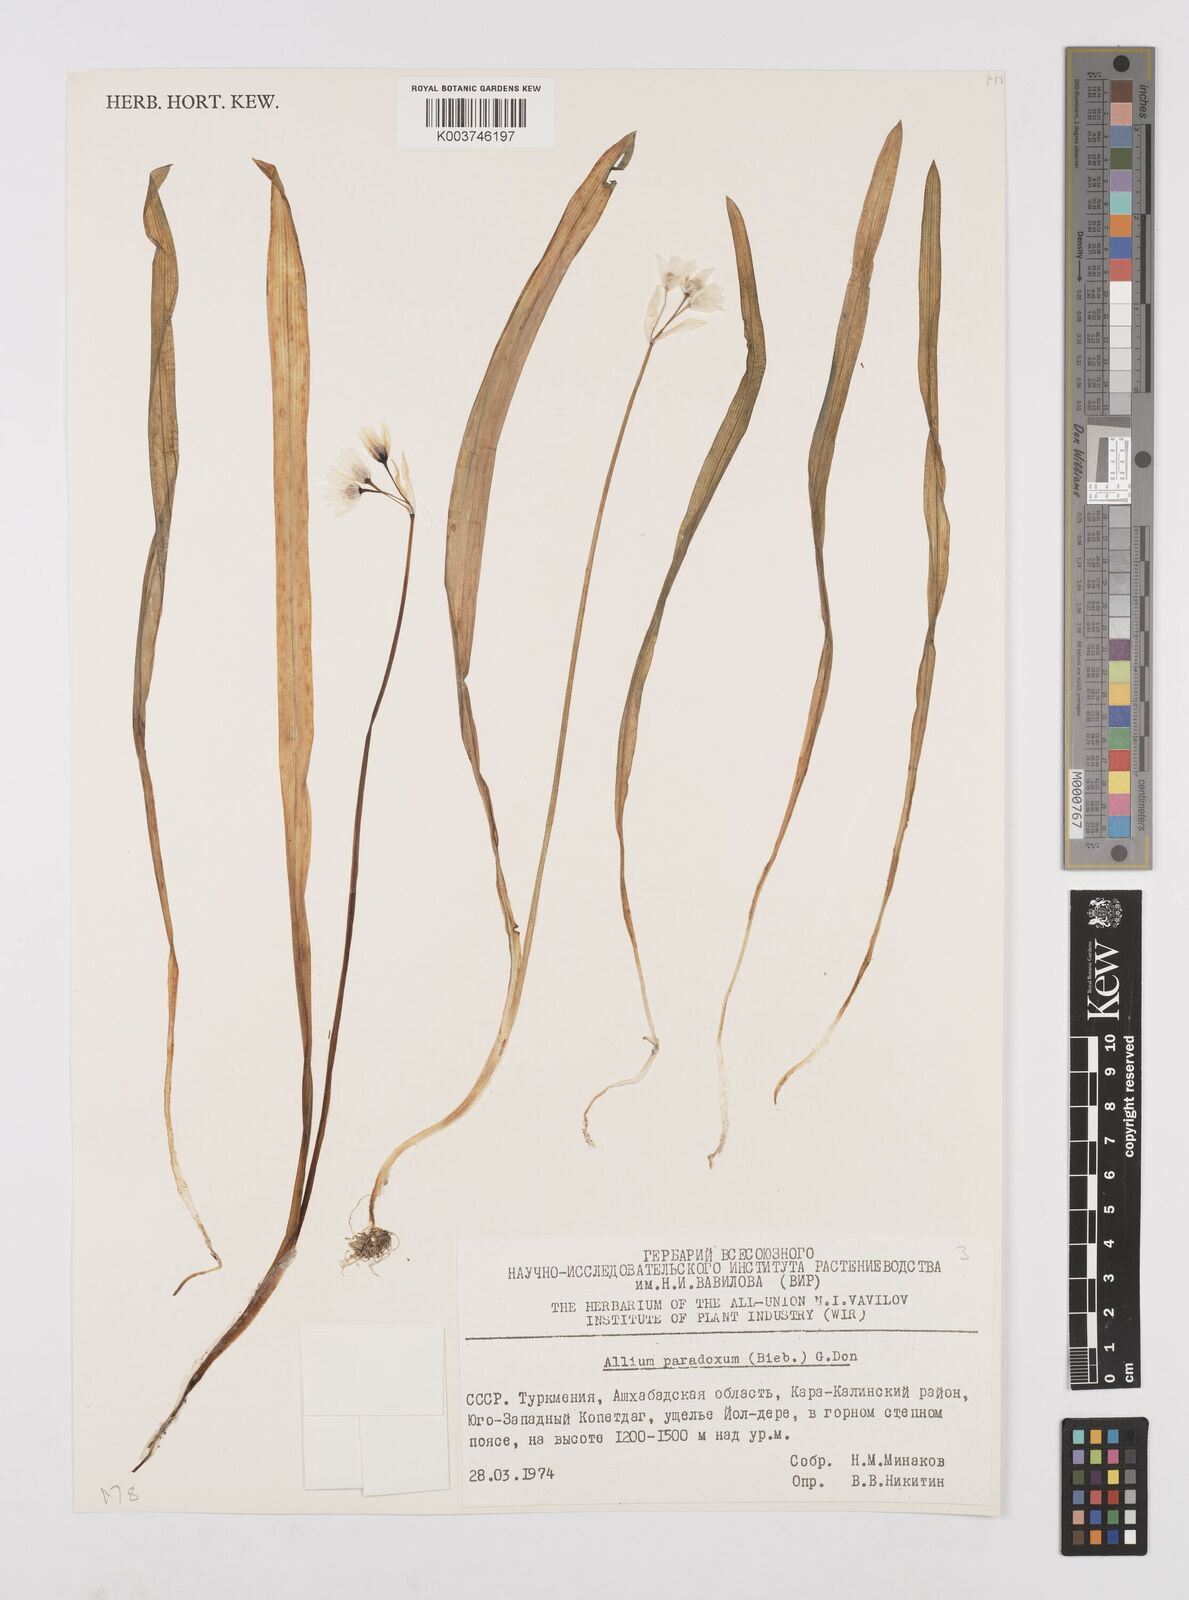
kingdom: Plantae
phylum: Tracheophyta
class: Liliopsida
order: Asparagales
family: Amaryllidaceae
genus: Allium
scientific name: Allium paradoxum
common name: Few-flowered garlic
